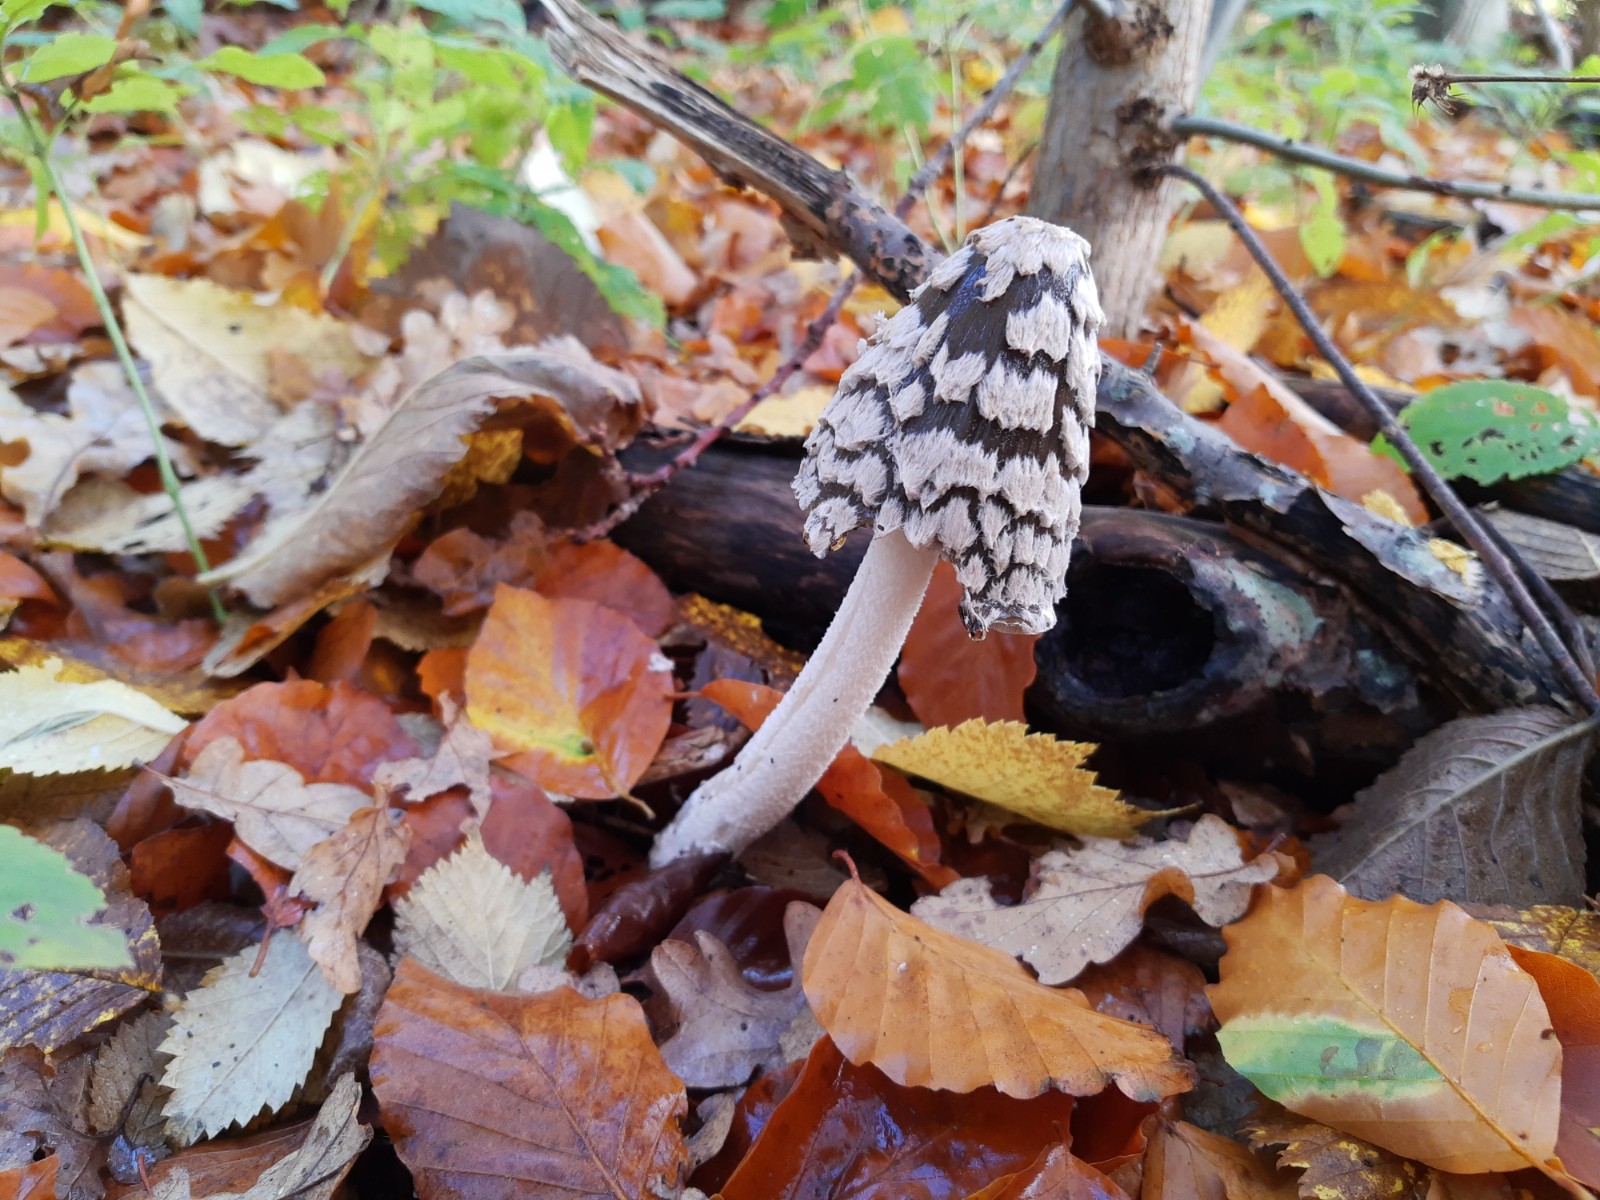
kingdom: Fungi
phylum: Basidiomycota
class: Agaricomycetes
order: Agaricales
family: Psathyrellaceae
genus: Coprinopsis
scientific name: Coprinopsis picacea
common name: skade-blækhat
